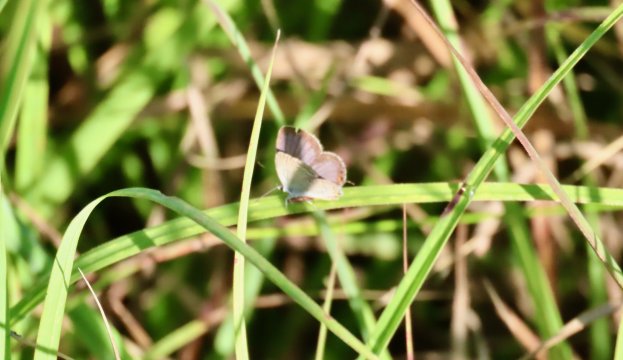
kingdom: Animalia
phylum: Arthropoda
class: Insecta
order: Lepidoptera
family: Lycaenidae
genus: Elkalyce
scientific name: Elkalyce comyntas
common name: Eastern Tailed-Blue
